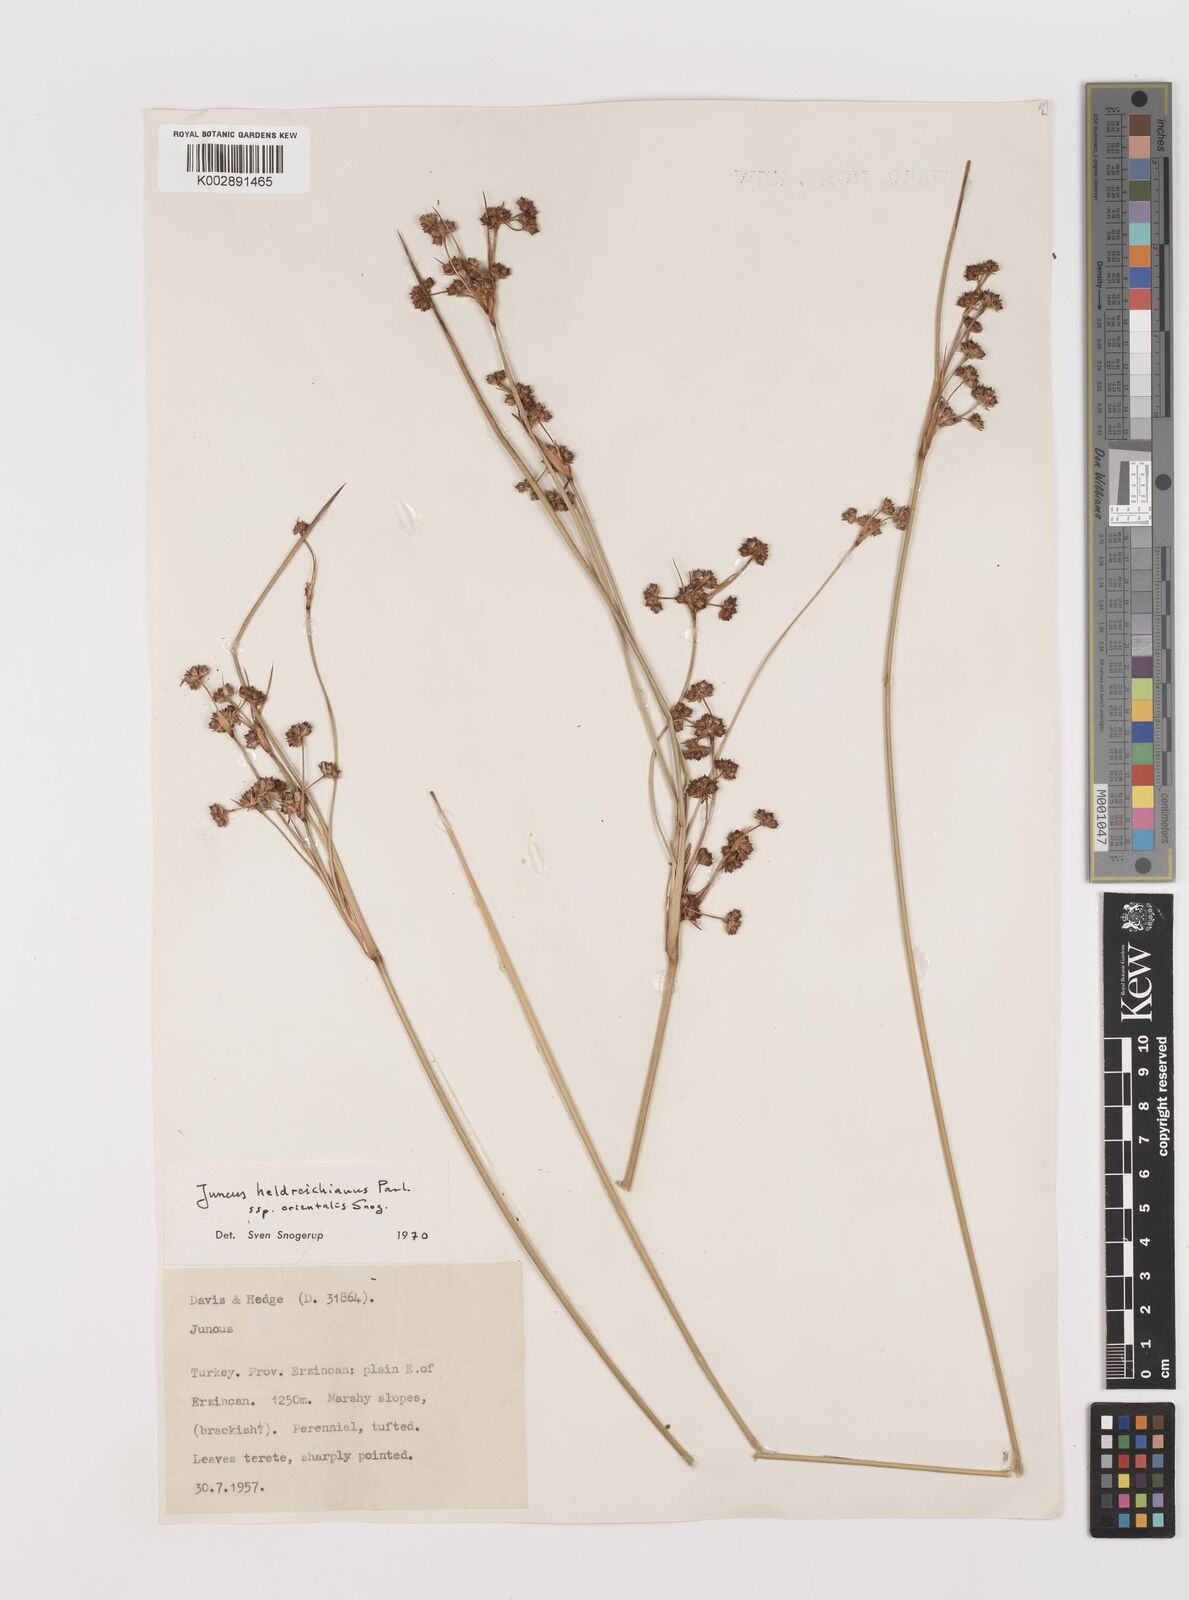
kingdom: Plantae
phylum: Tracheophyta
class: Liliopsida
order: Poales
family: Juncaceae
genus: Juncus
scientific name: Juncus heldreichianus
